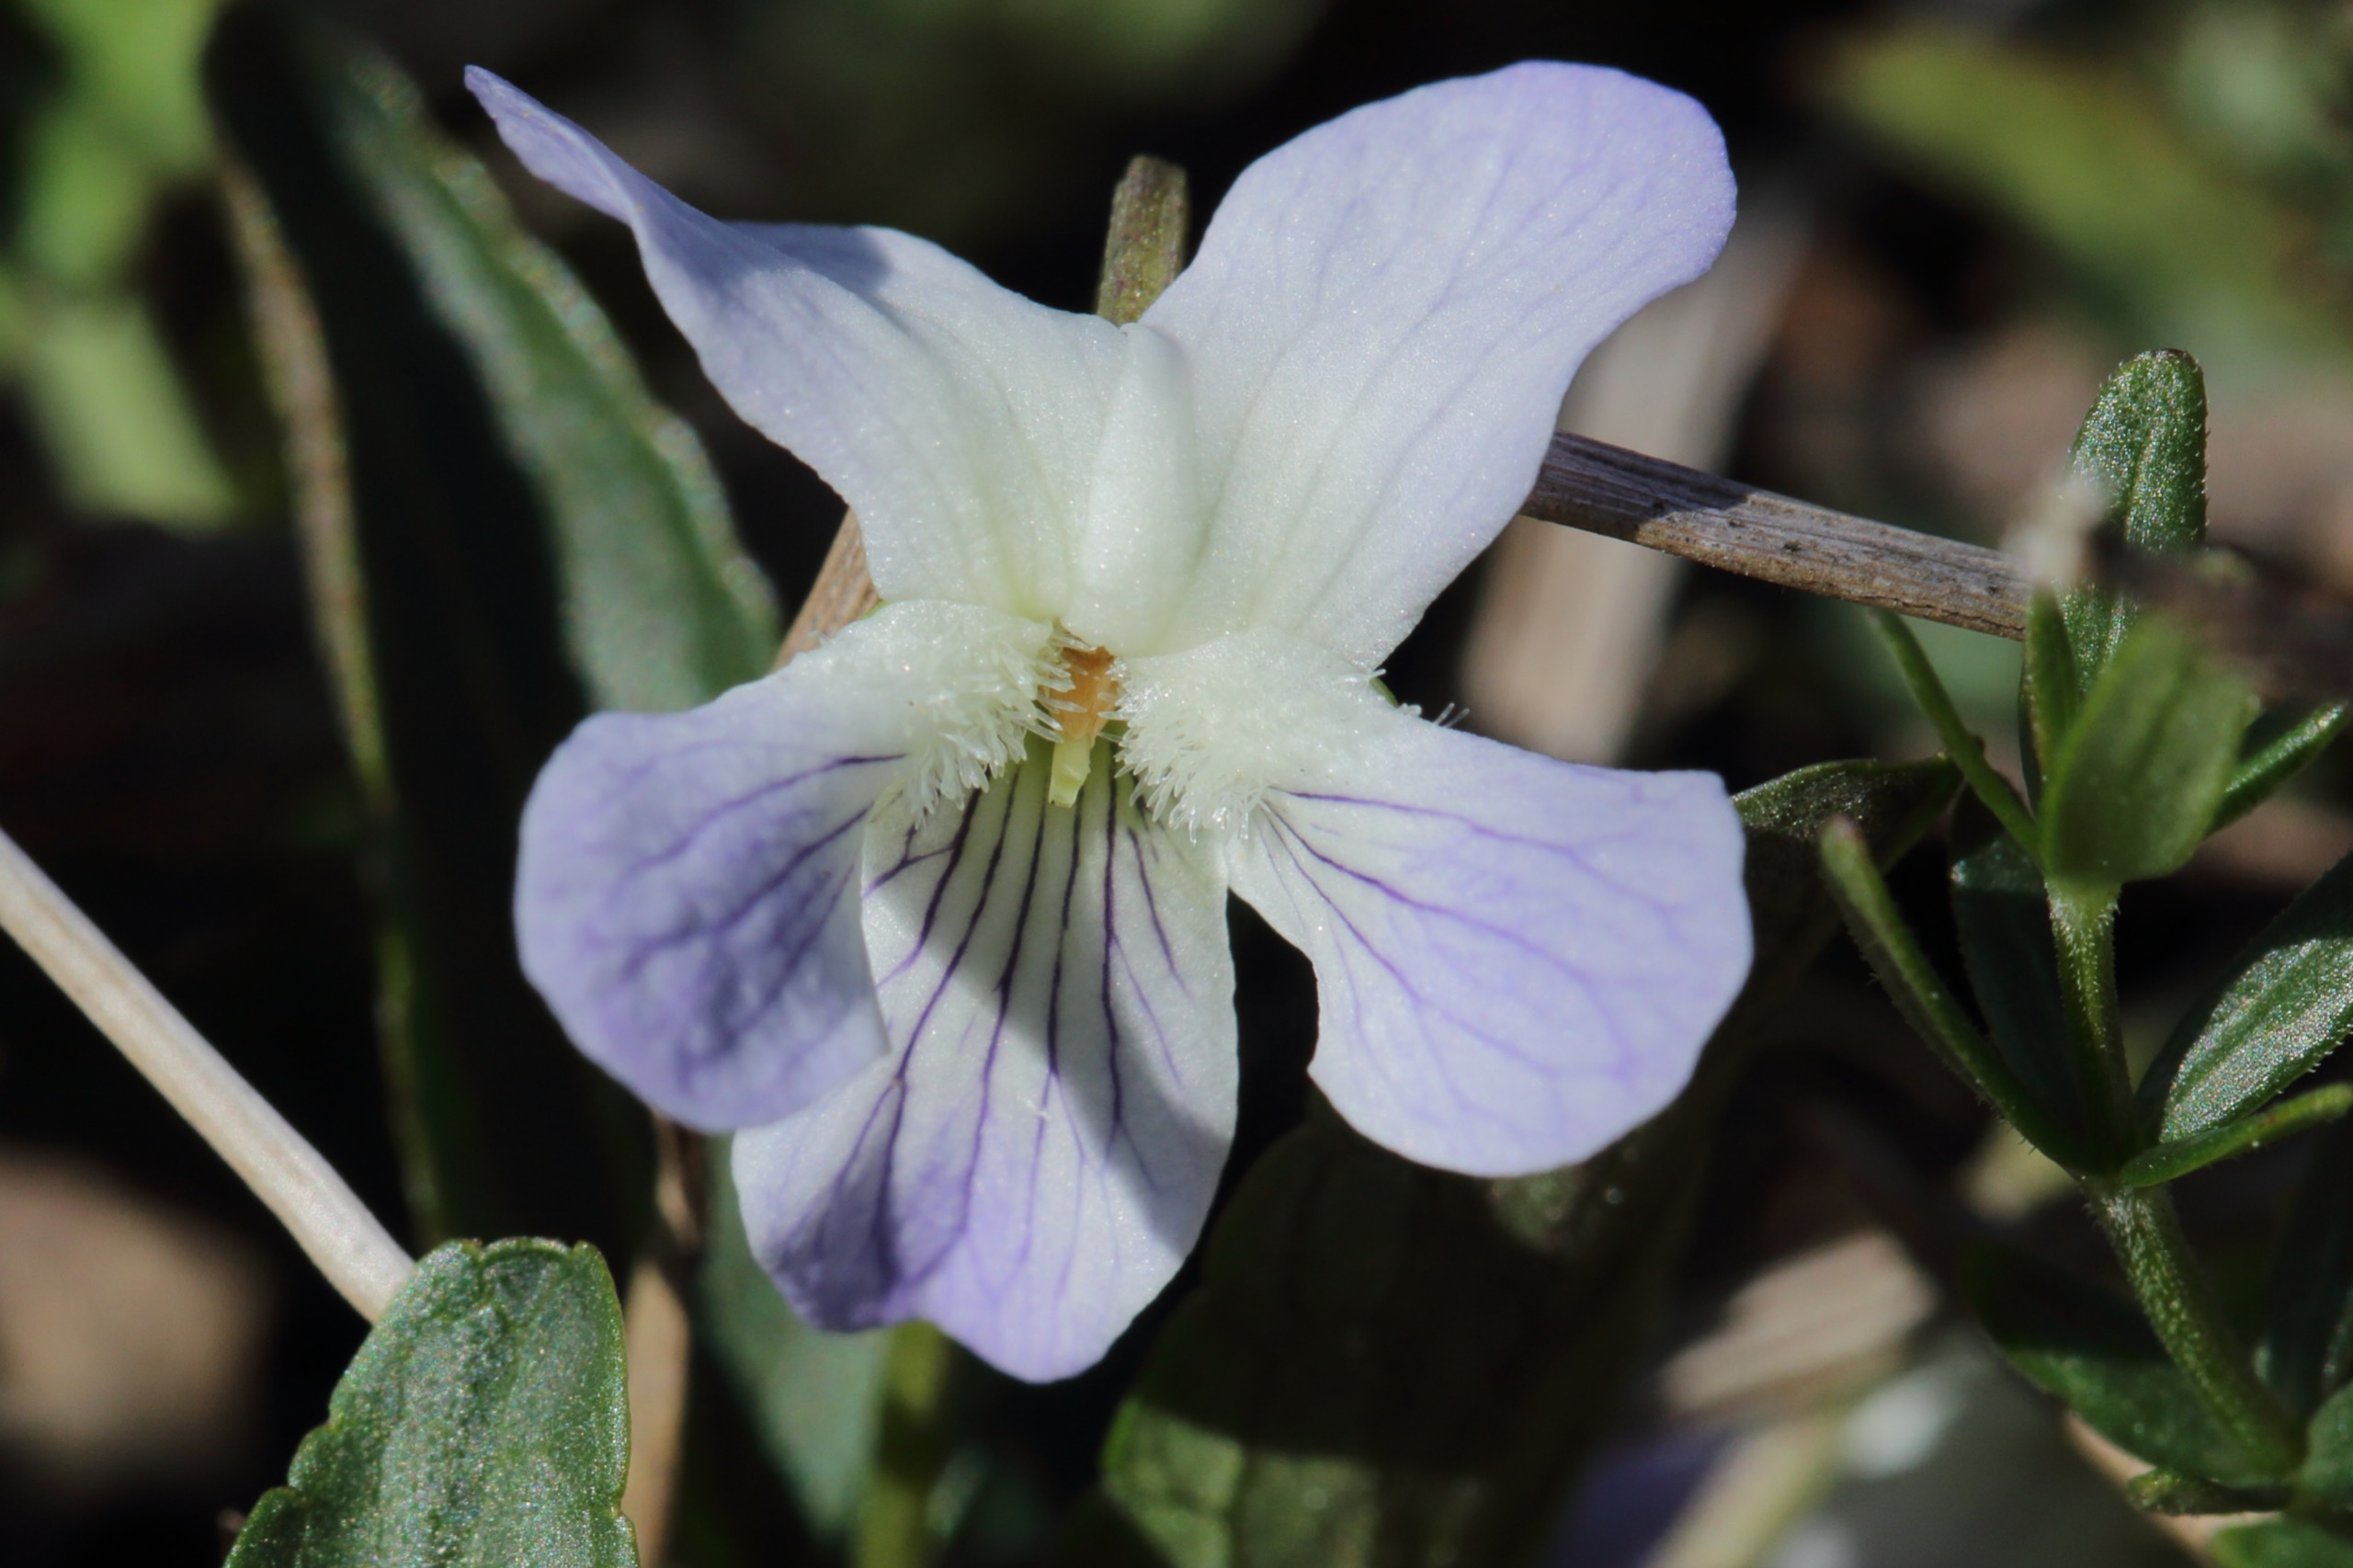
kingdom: Plantae
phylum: Tracheophyta
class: Magnoliopsida
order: Malpighiales
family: Violaceae
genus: Viola
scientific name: Viola stagnina
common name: Rank viol
